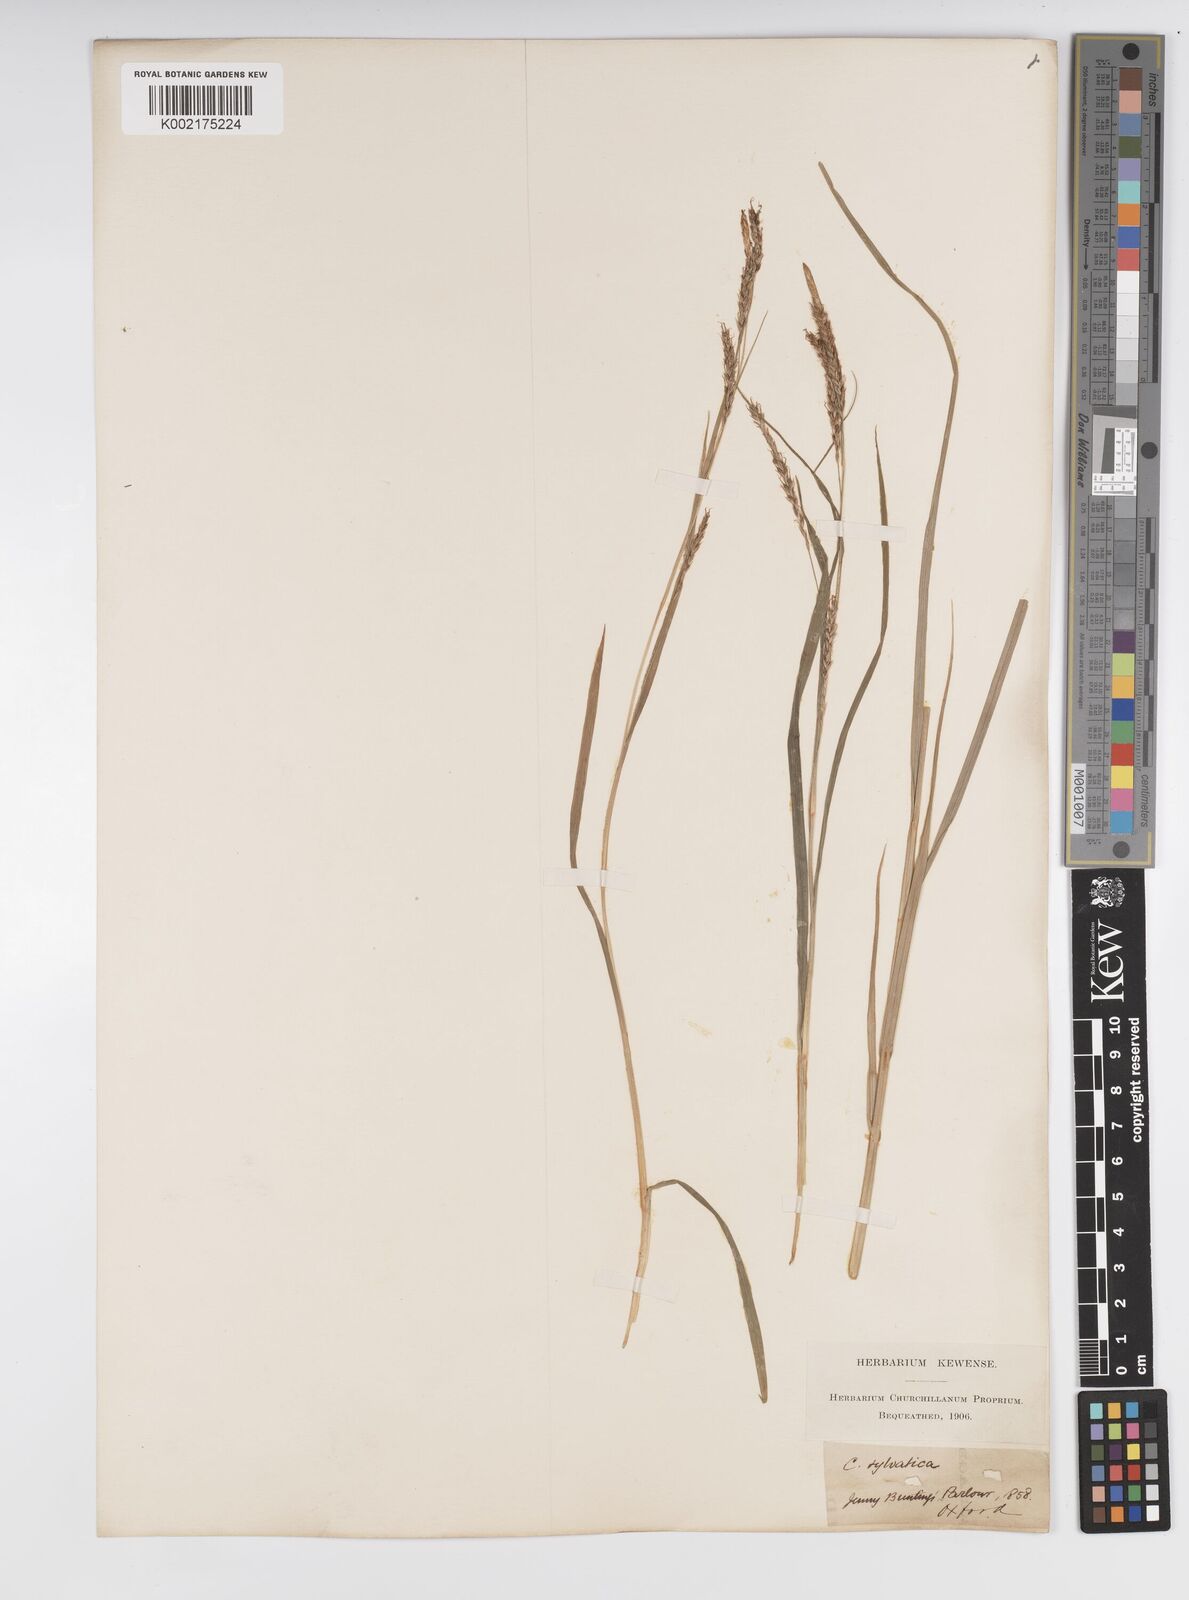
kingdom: Plantae
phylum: Tracheophyta
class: Liliopsida
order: Poales
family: Cyperaceae
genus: Carex
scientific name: Carex sylvatica
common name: Wood-sedge
